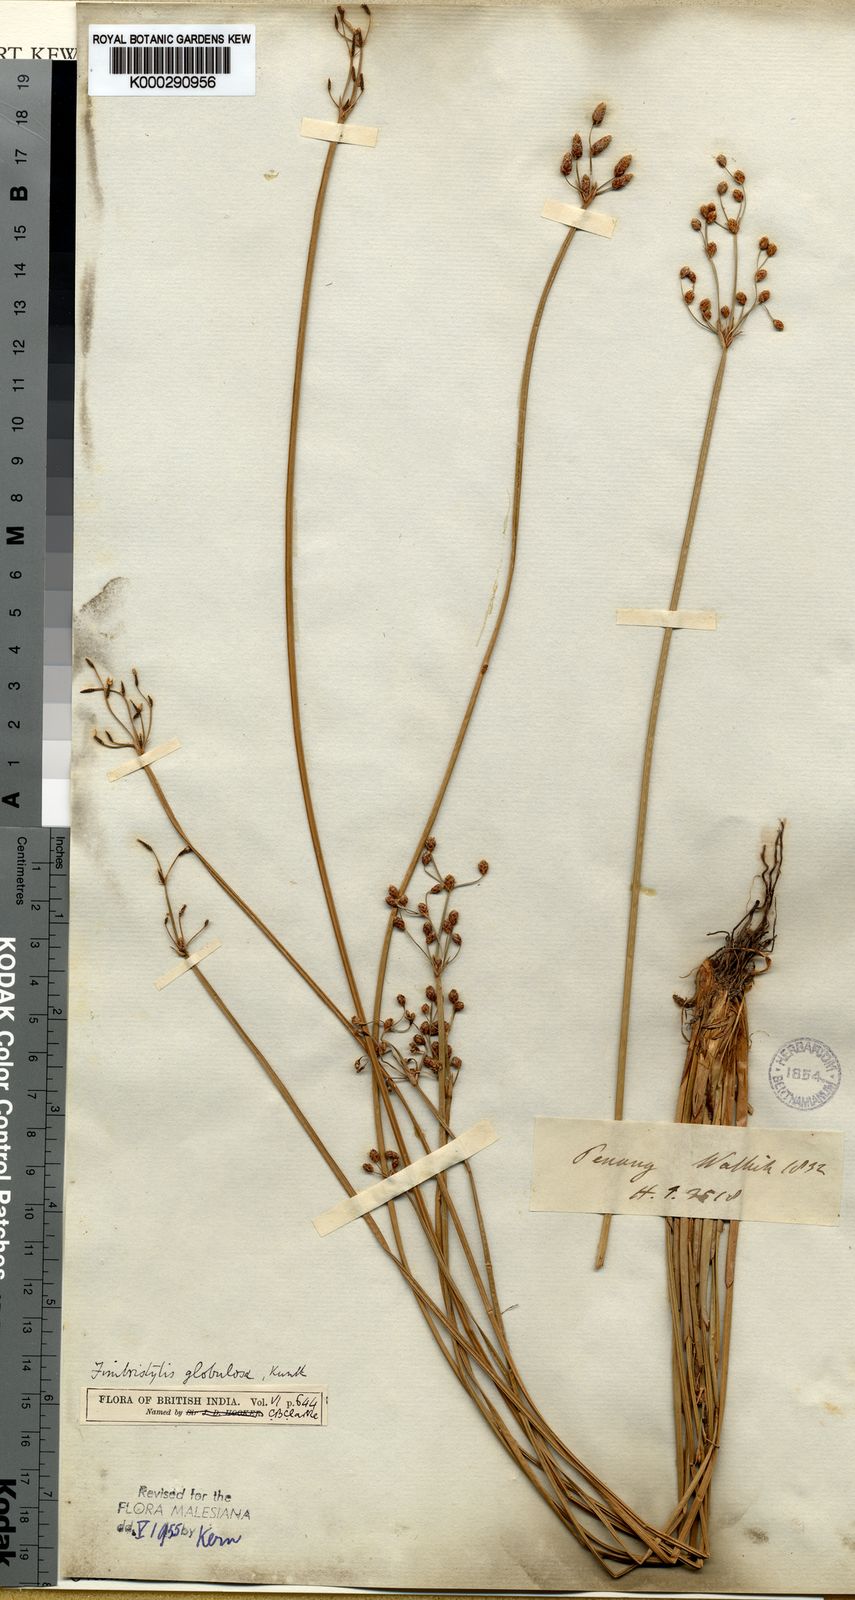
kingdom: Plantae
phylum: Tracheophyta
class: Liliopsida
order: Poales
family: Cyperaceae
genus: Fimbristylis
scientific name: Fimbristylis umbellaris
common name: Globular fimbristylis
